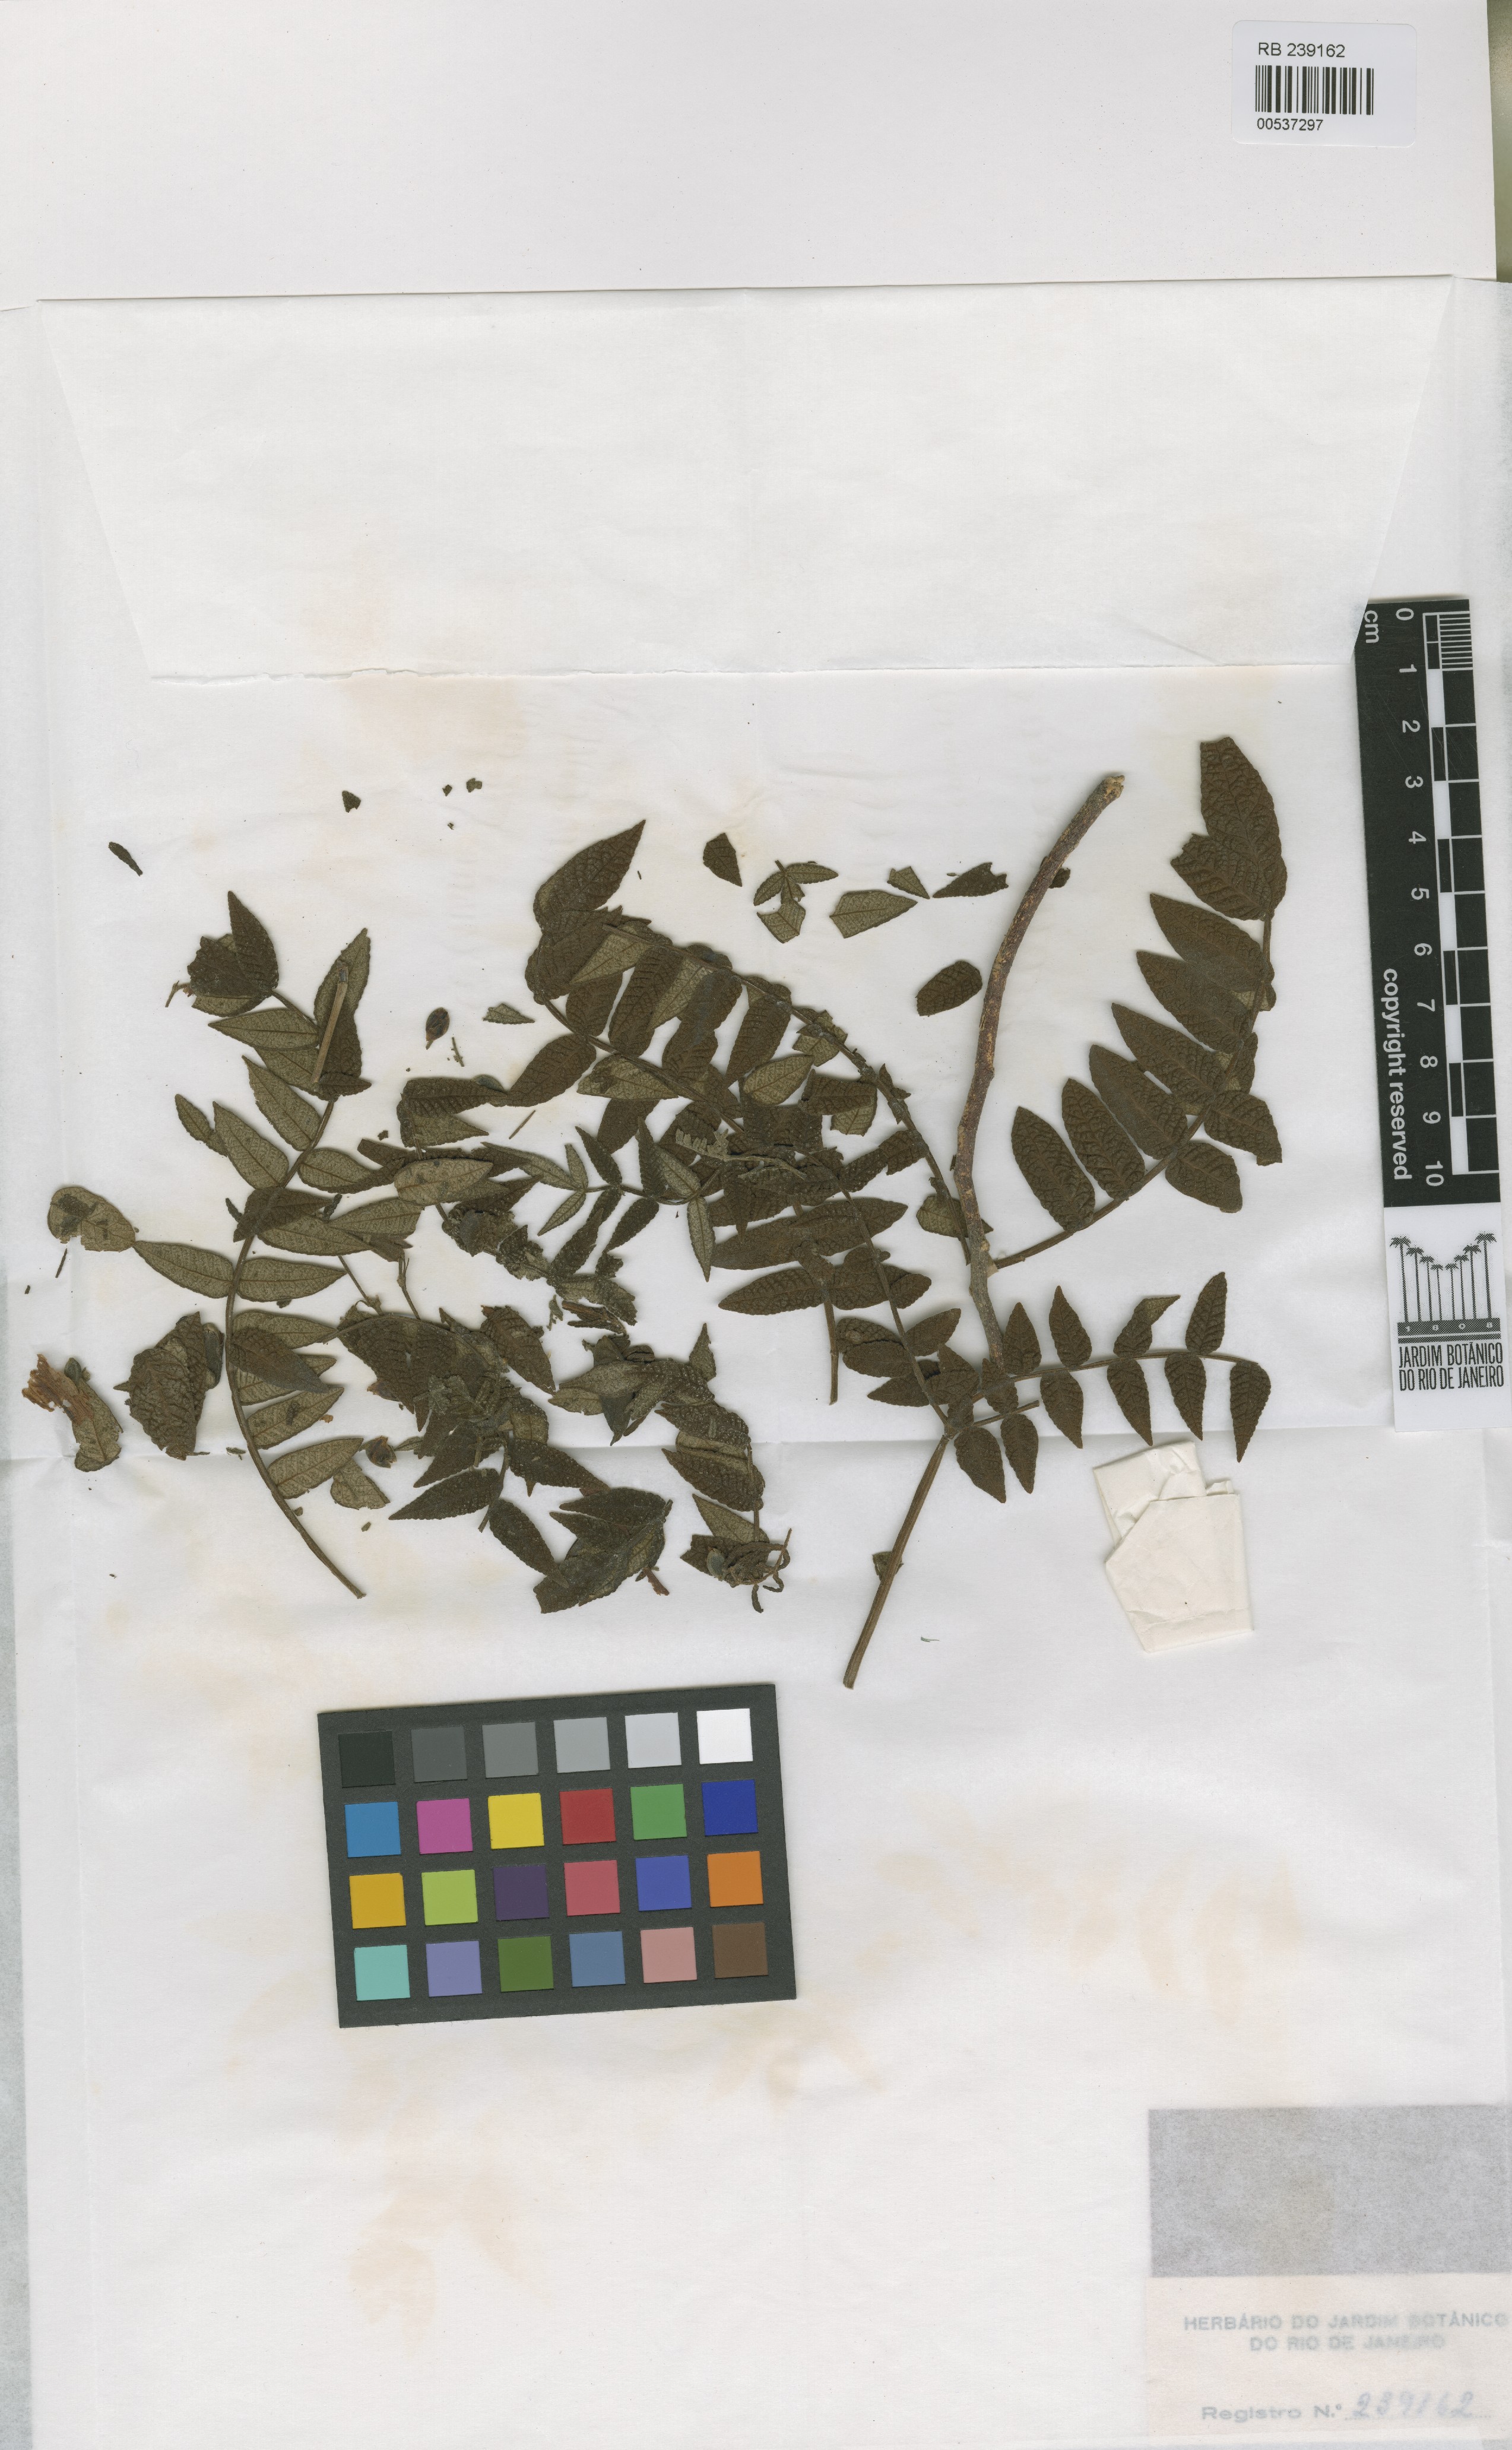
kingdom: Plantae
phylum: Tracheophyta
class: Magnoliopsida
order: Lamiales
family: Bignoniaceae
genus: Jacaranda
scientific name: Jacaranda ulei
